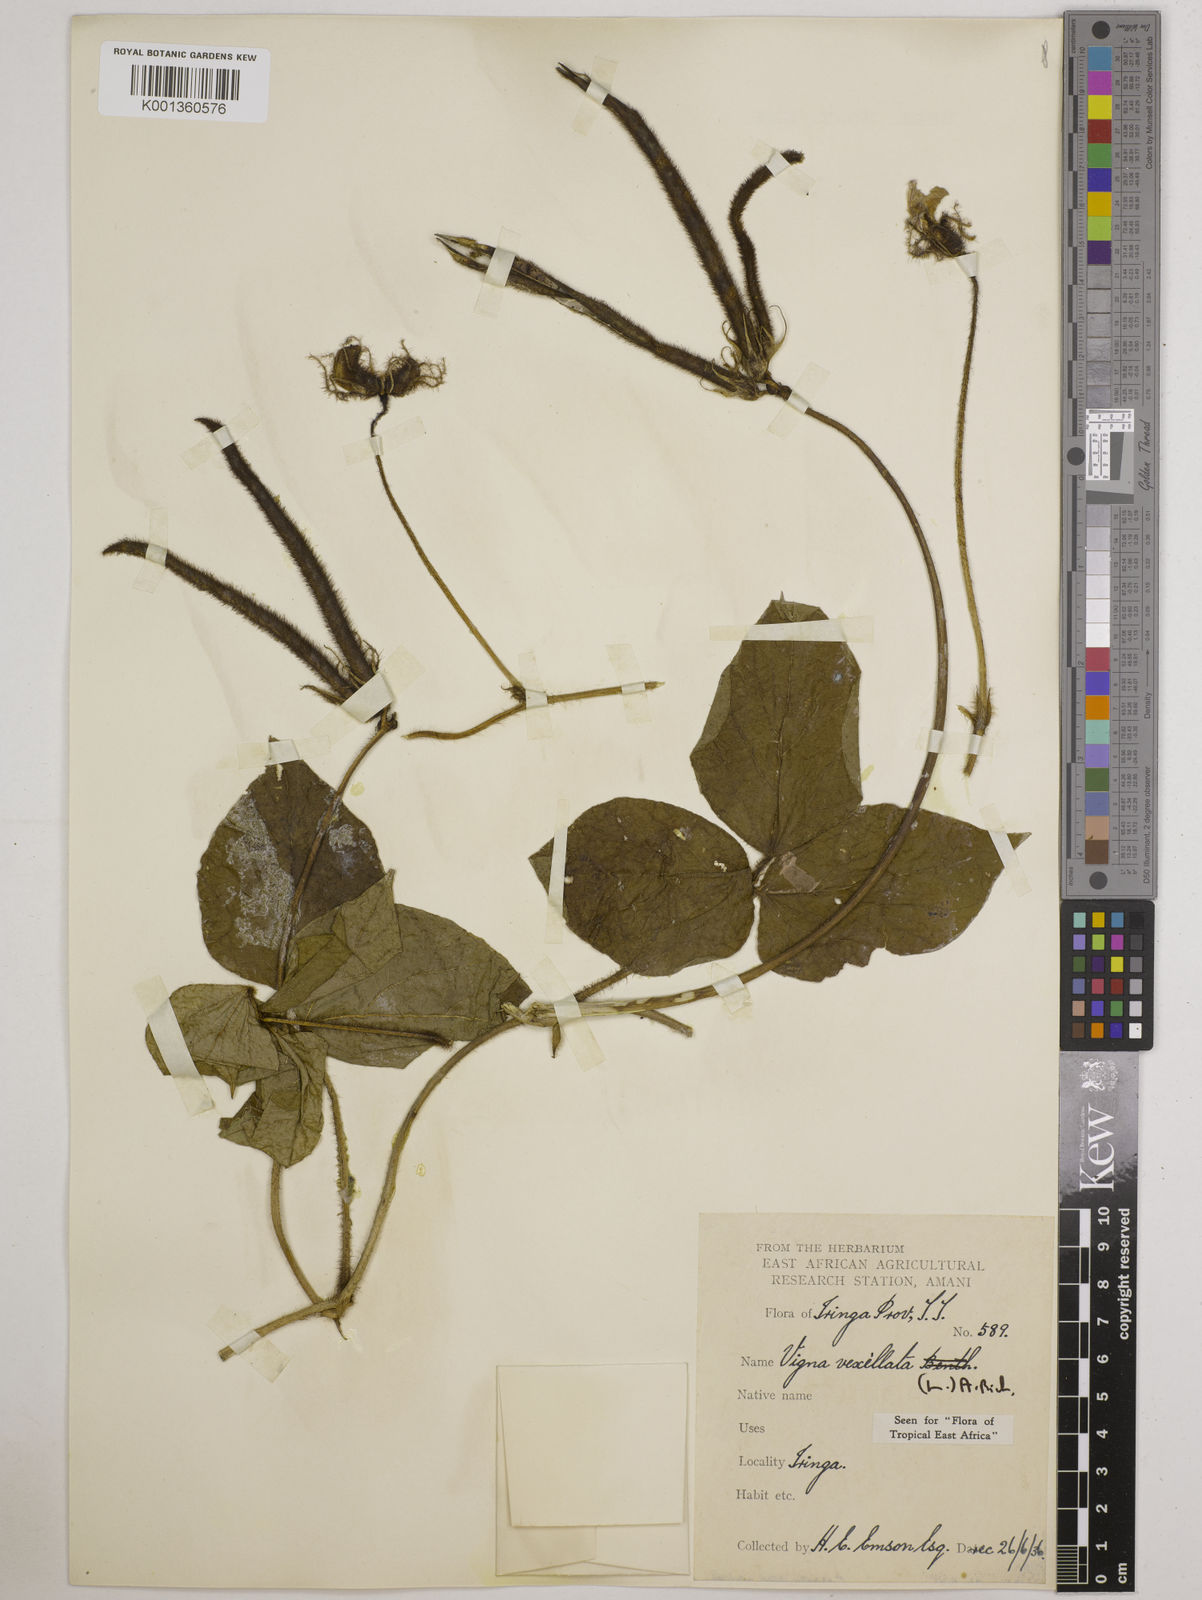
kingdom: Plantae
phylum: Tracheophyta
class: Magnoliopsida
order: Fabales
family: Fabaceae
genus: Vigna
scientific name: Vigna vexillata
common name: Zombi pea
